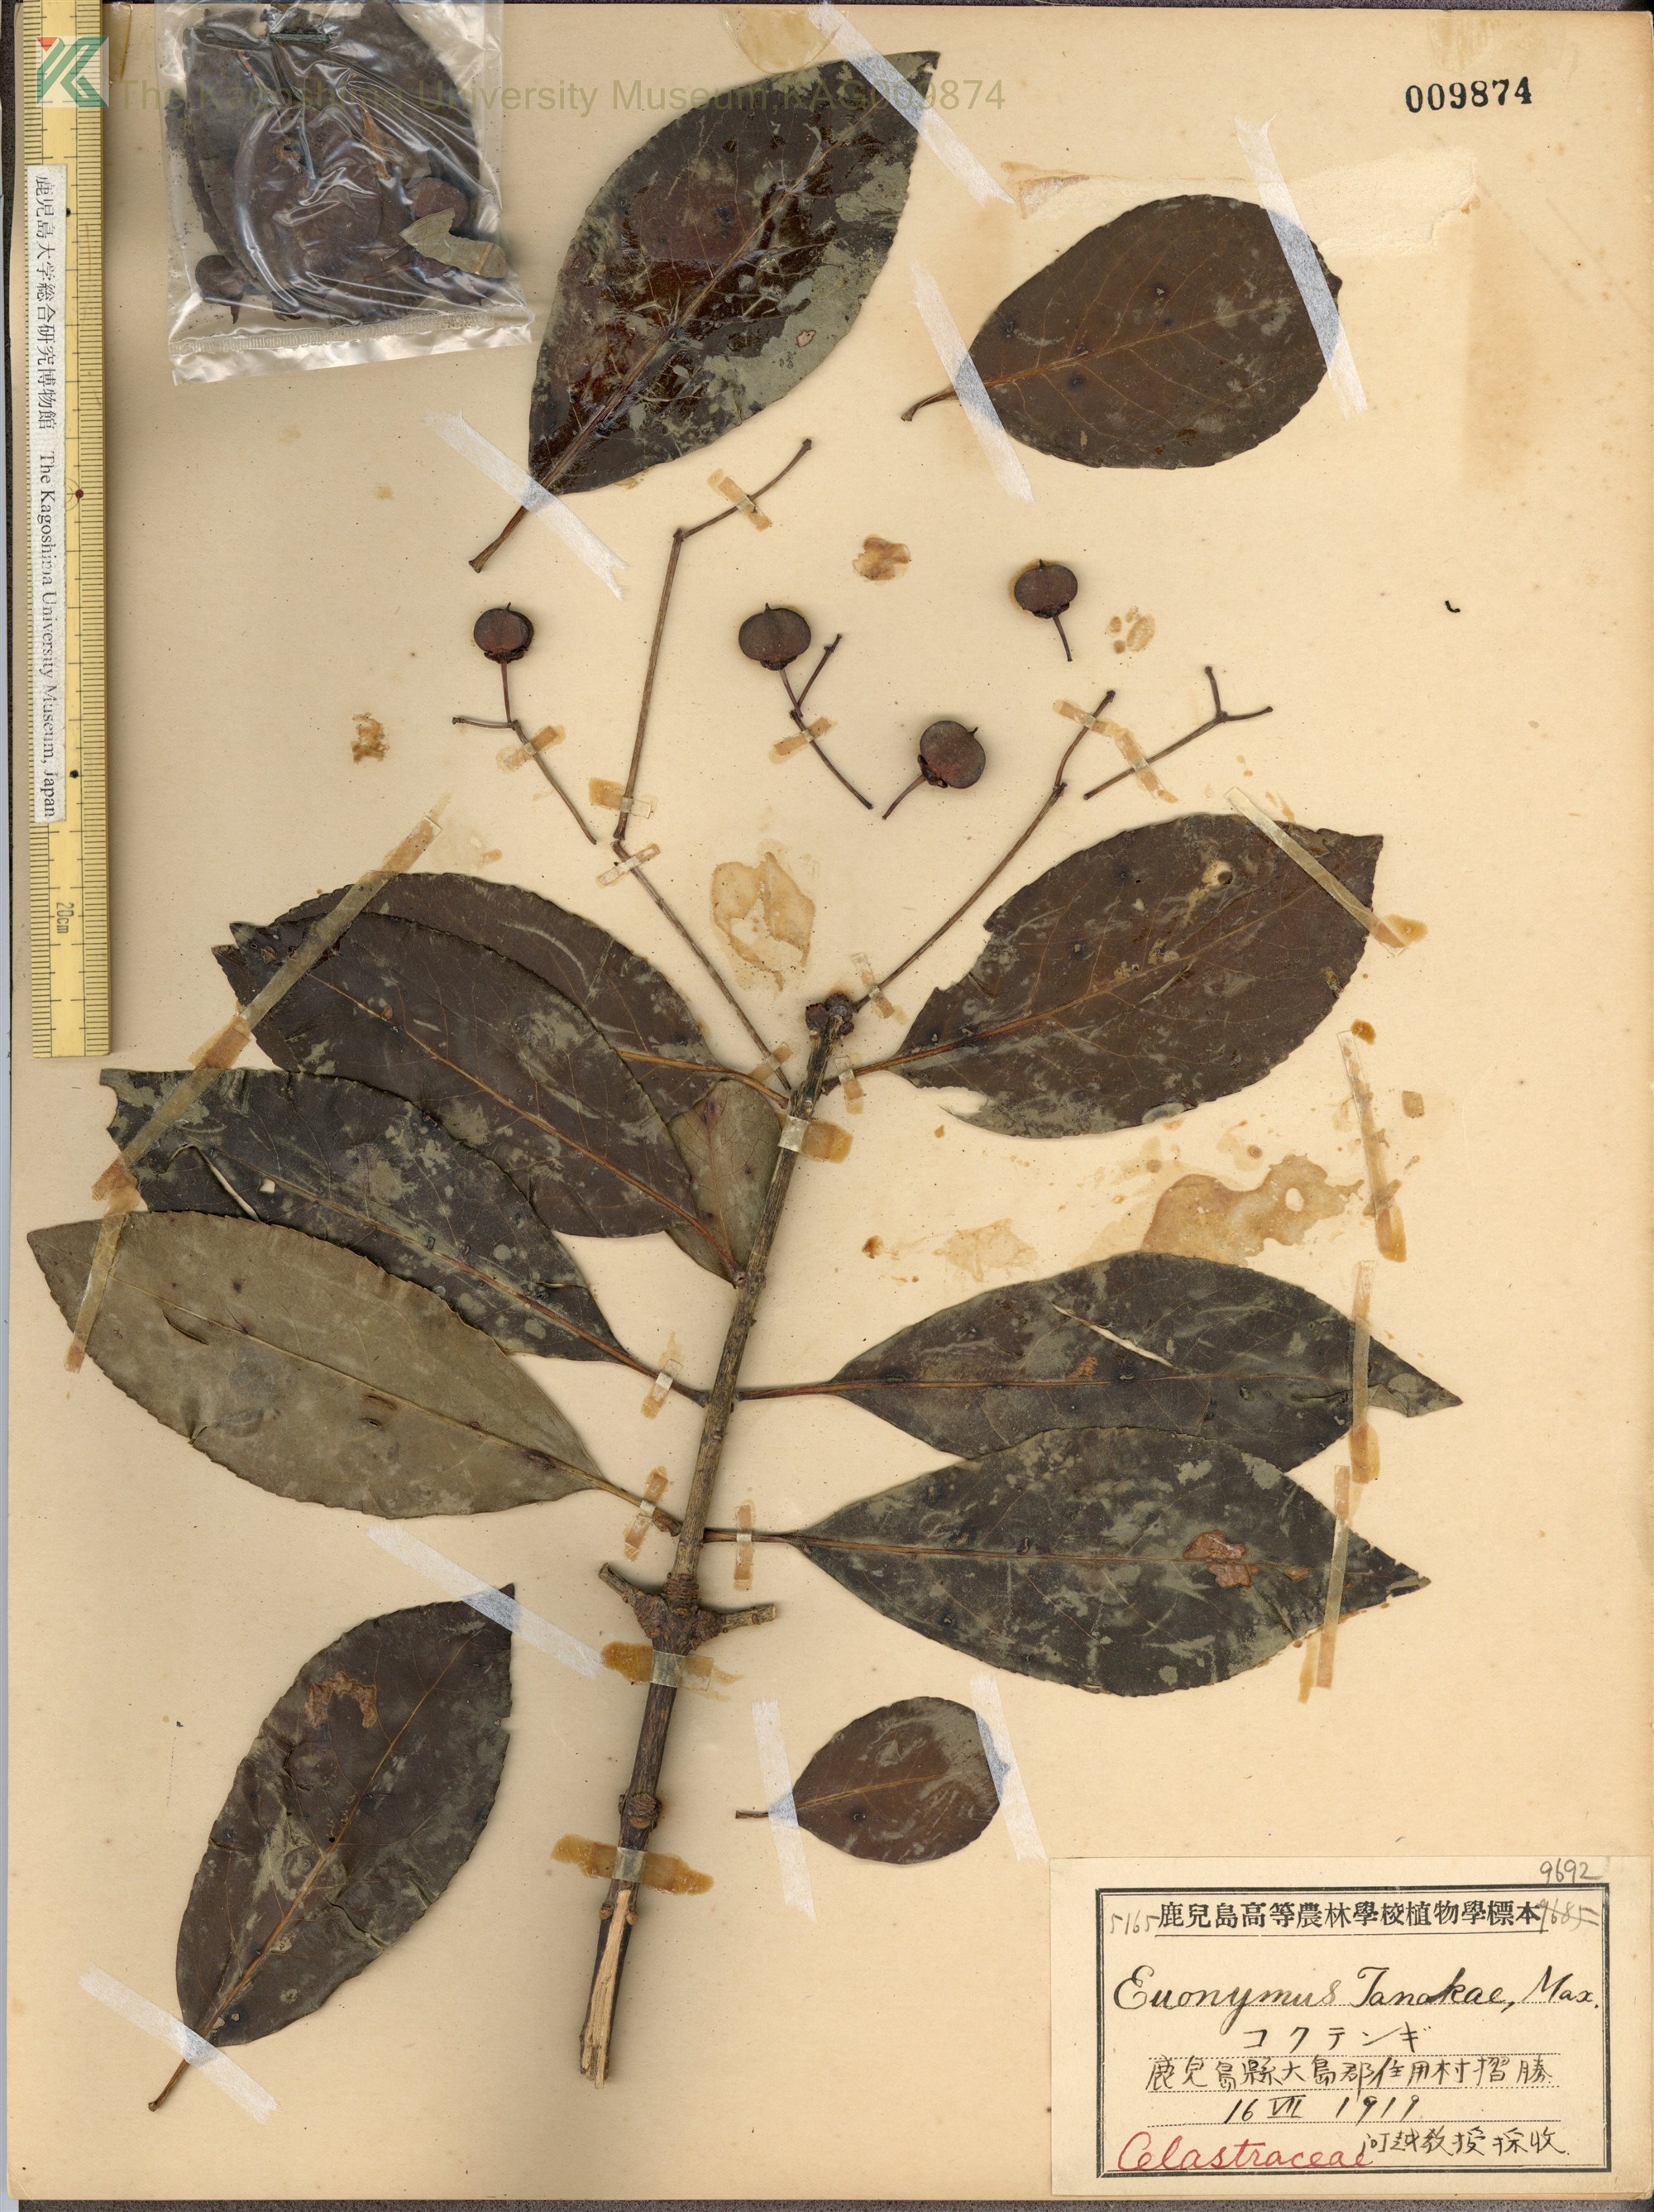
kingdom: Plantae
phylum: Tracheophyta
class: Magnoliopsida
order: Celastrales
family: Celastraceae
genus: Euonymus
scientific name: Euonymus carnosus
